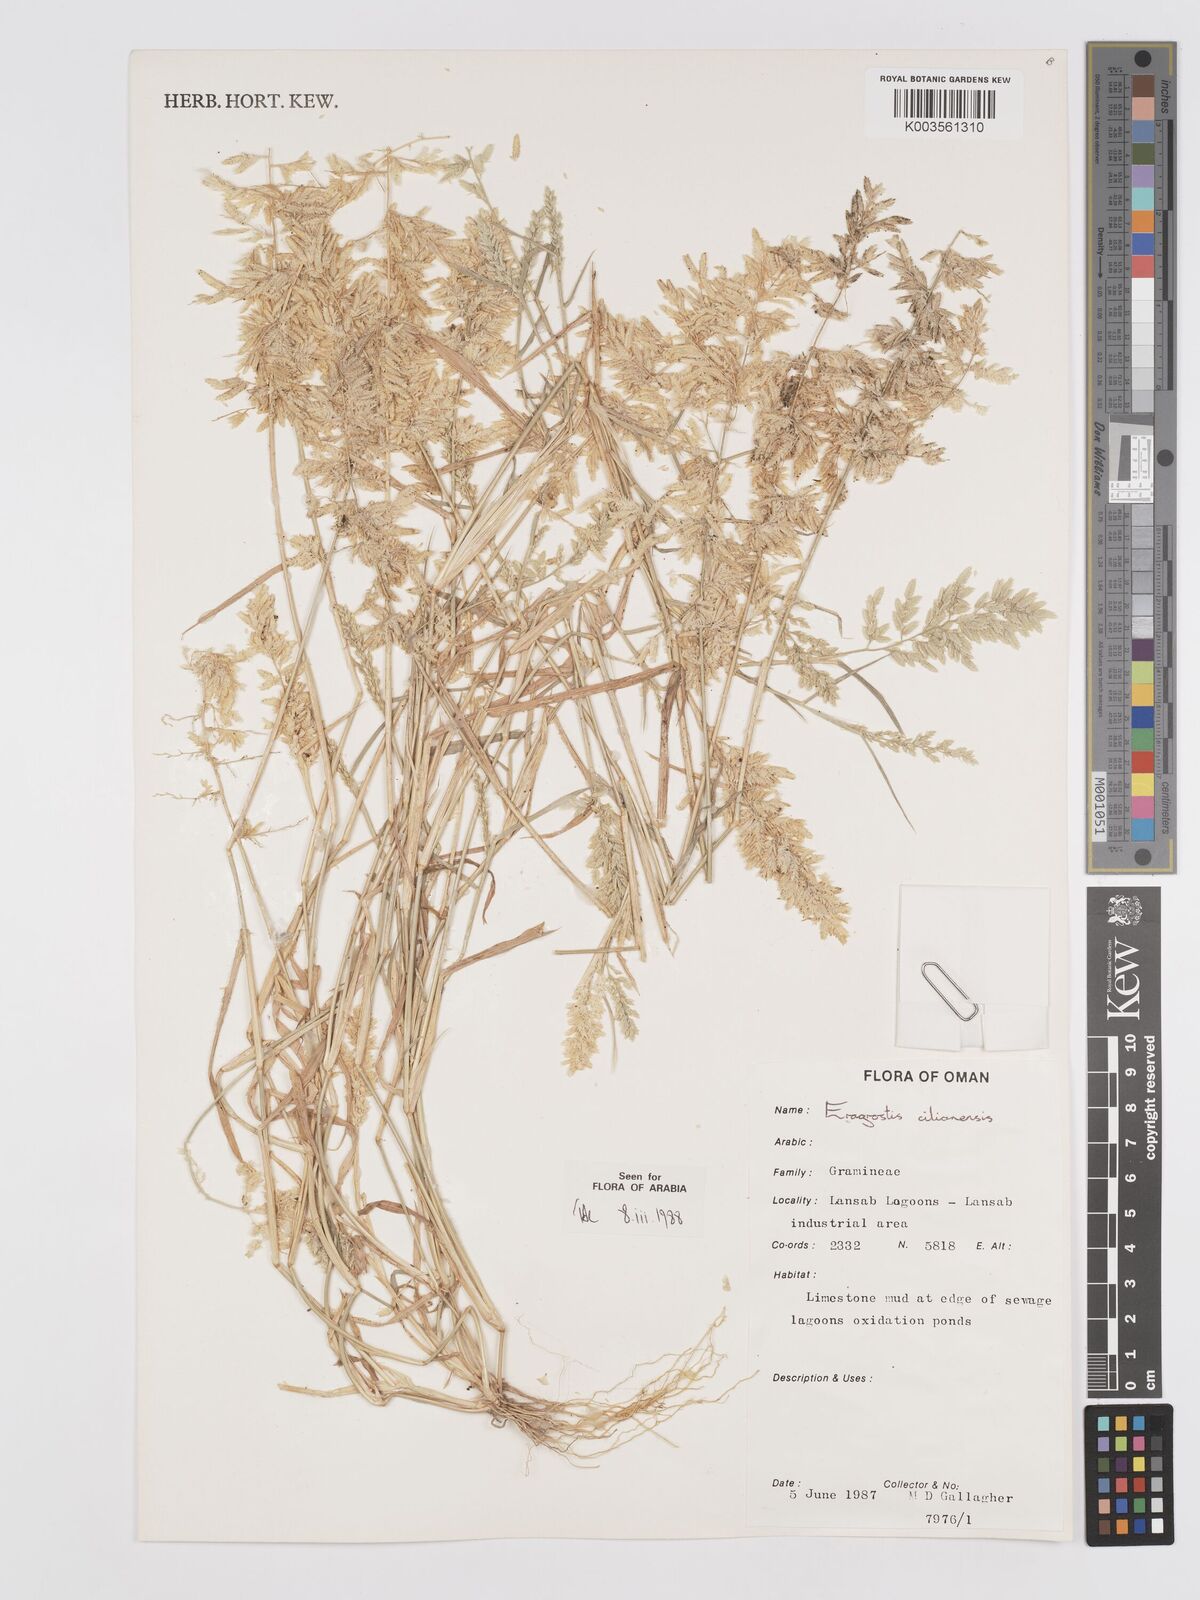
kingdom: Plantae
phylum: Tracheophyta
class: Liliopsida
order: Poales
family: Poaceae
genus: Eragrostis
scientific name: Eragrostis cilianensis
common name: Stinkgrass
